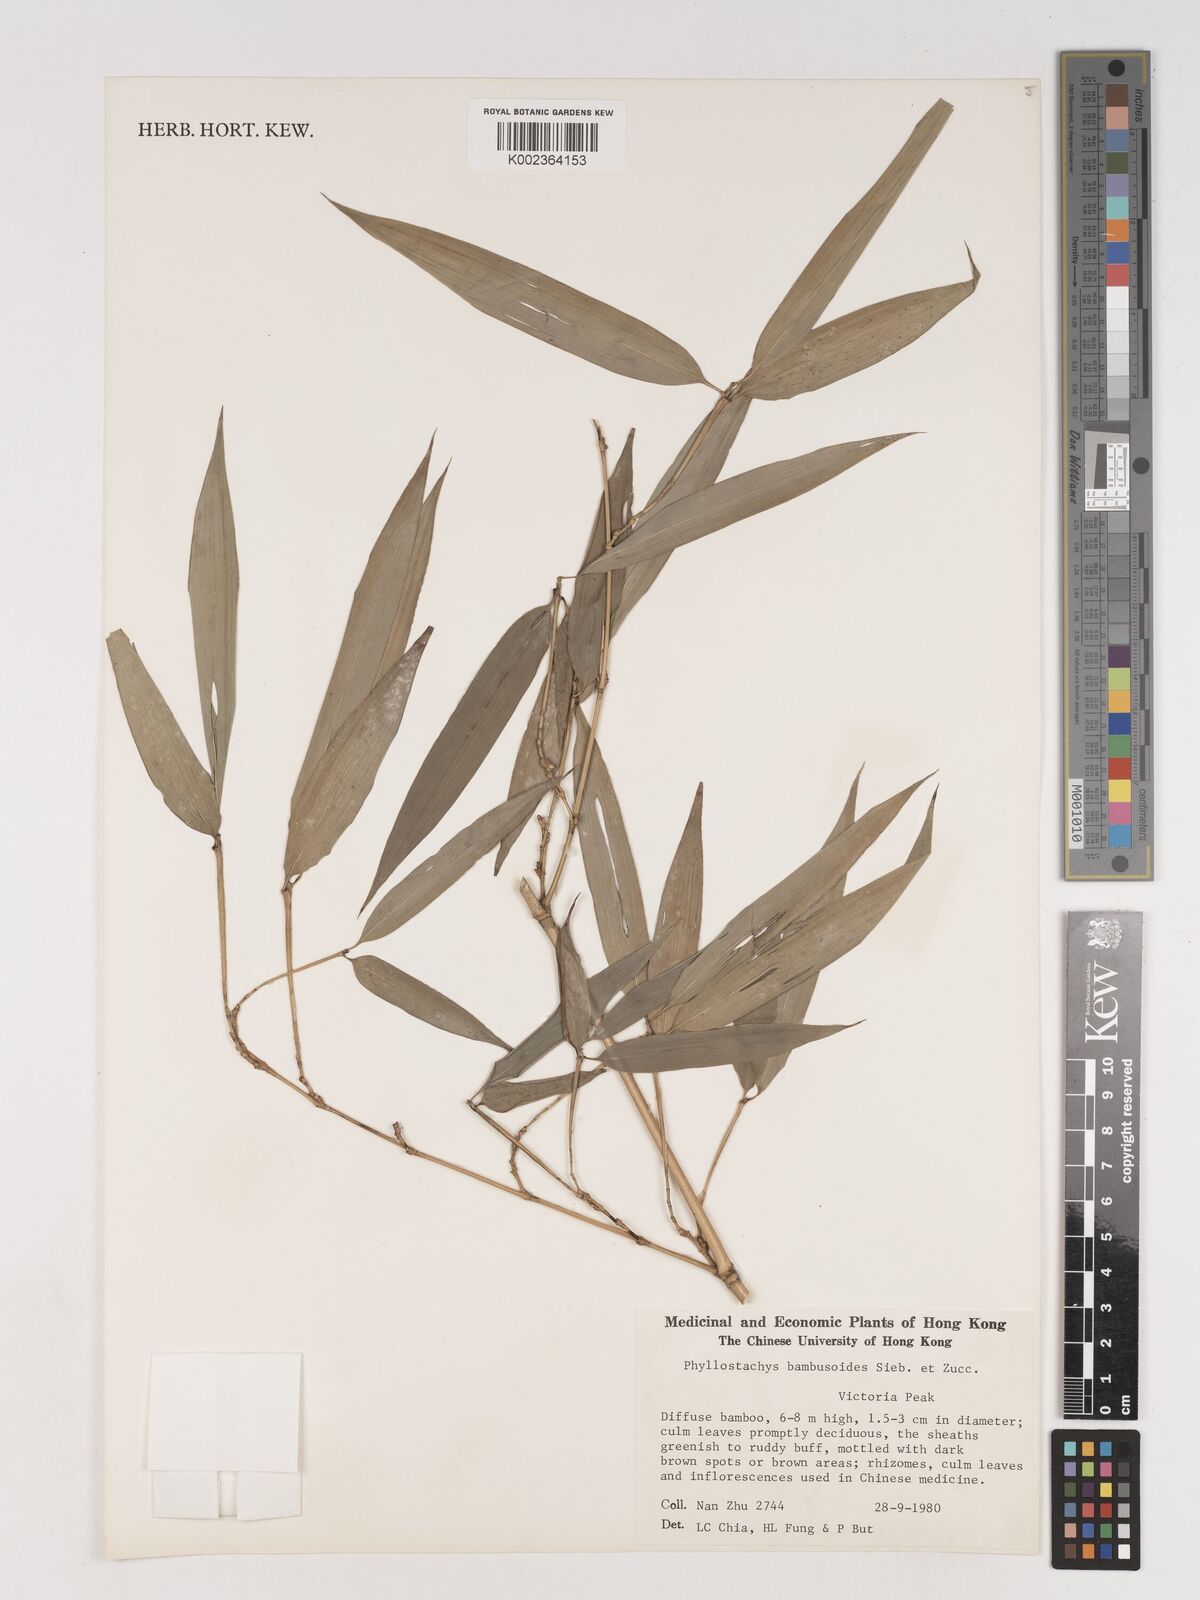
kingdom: Plantae
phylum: Tracheophyta
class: Liliopsida
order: Poales
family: Poaceae
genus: Phyllostachys
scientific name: Phyllostachys reticulata
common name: Bamboo
